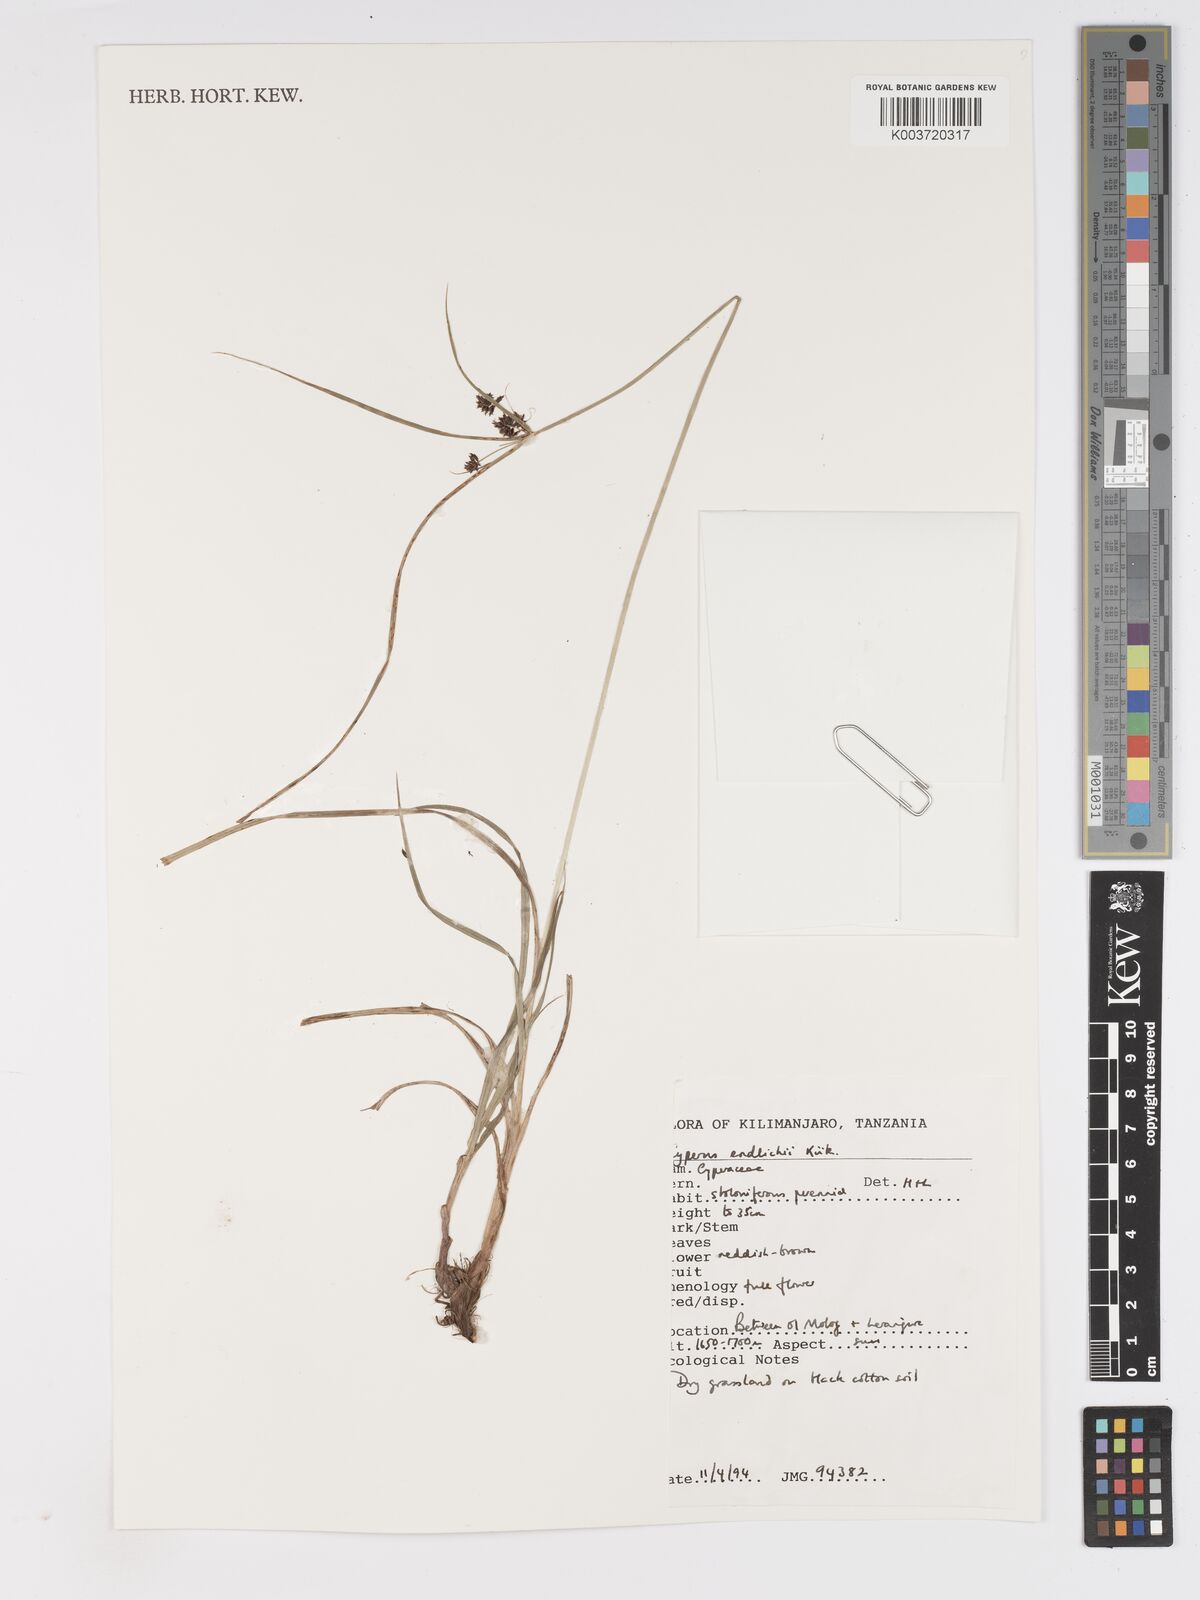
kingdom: Plantae
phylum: Tracheophyta
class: Liliopsida
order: Poales
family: Cyperaceae
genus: Cyperus
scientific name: Cyperus
